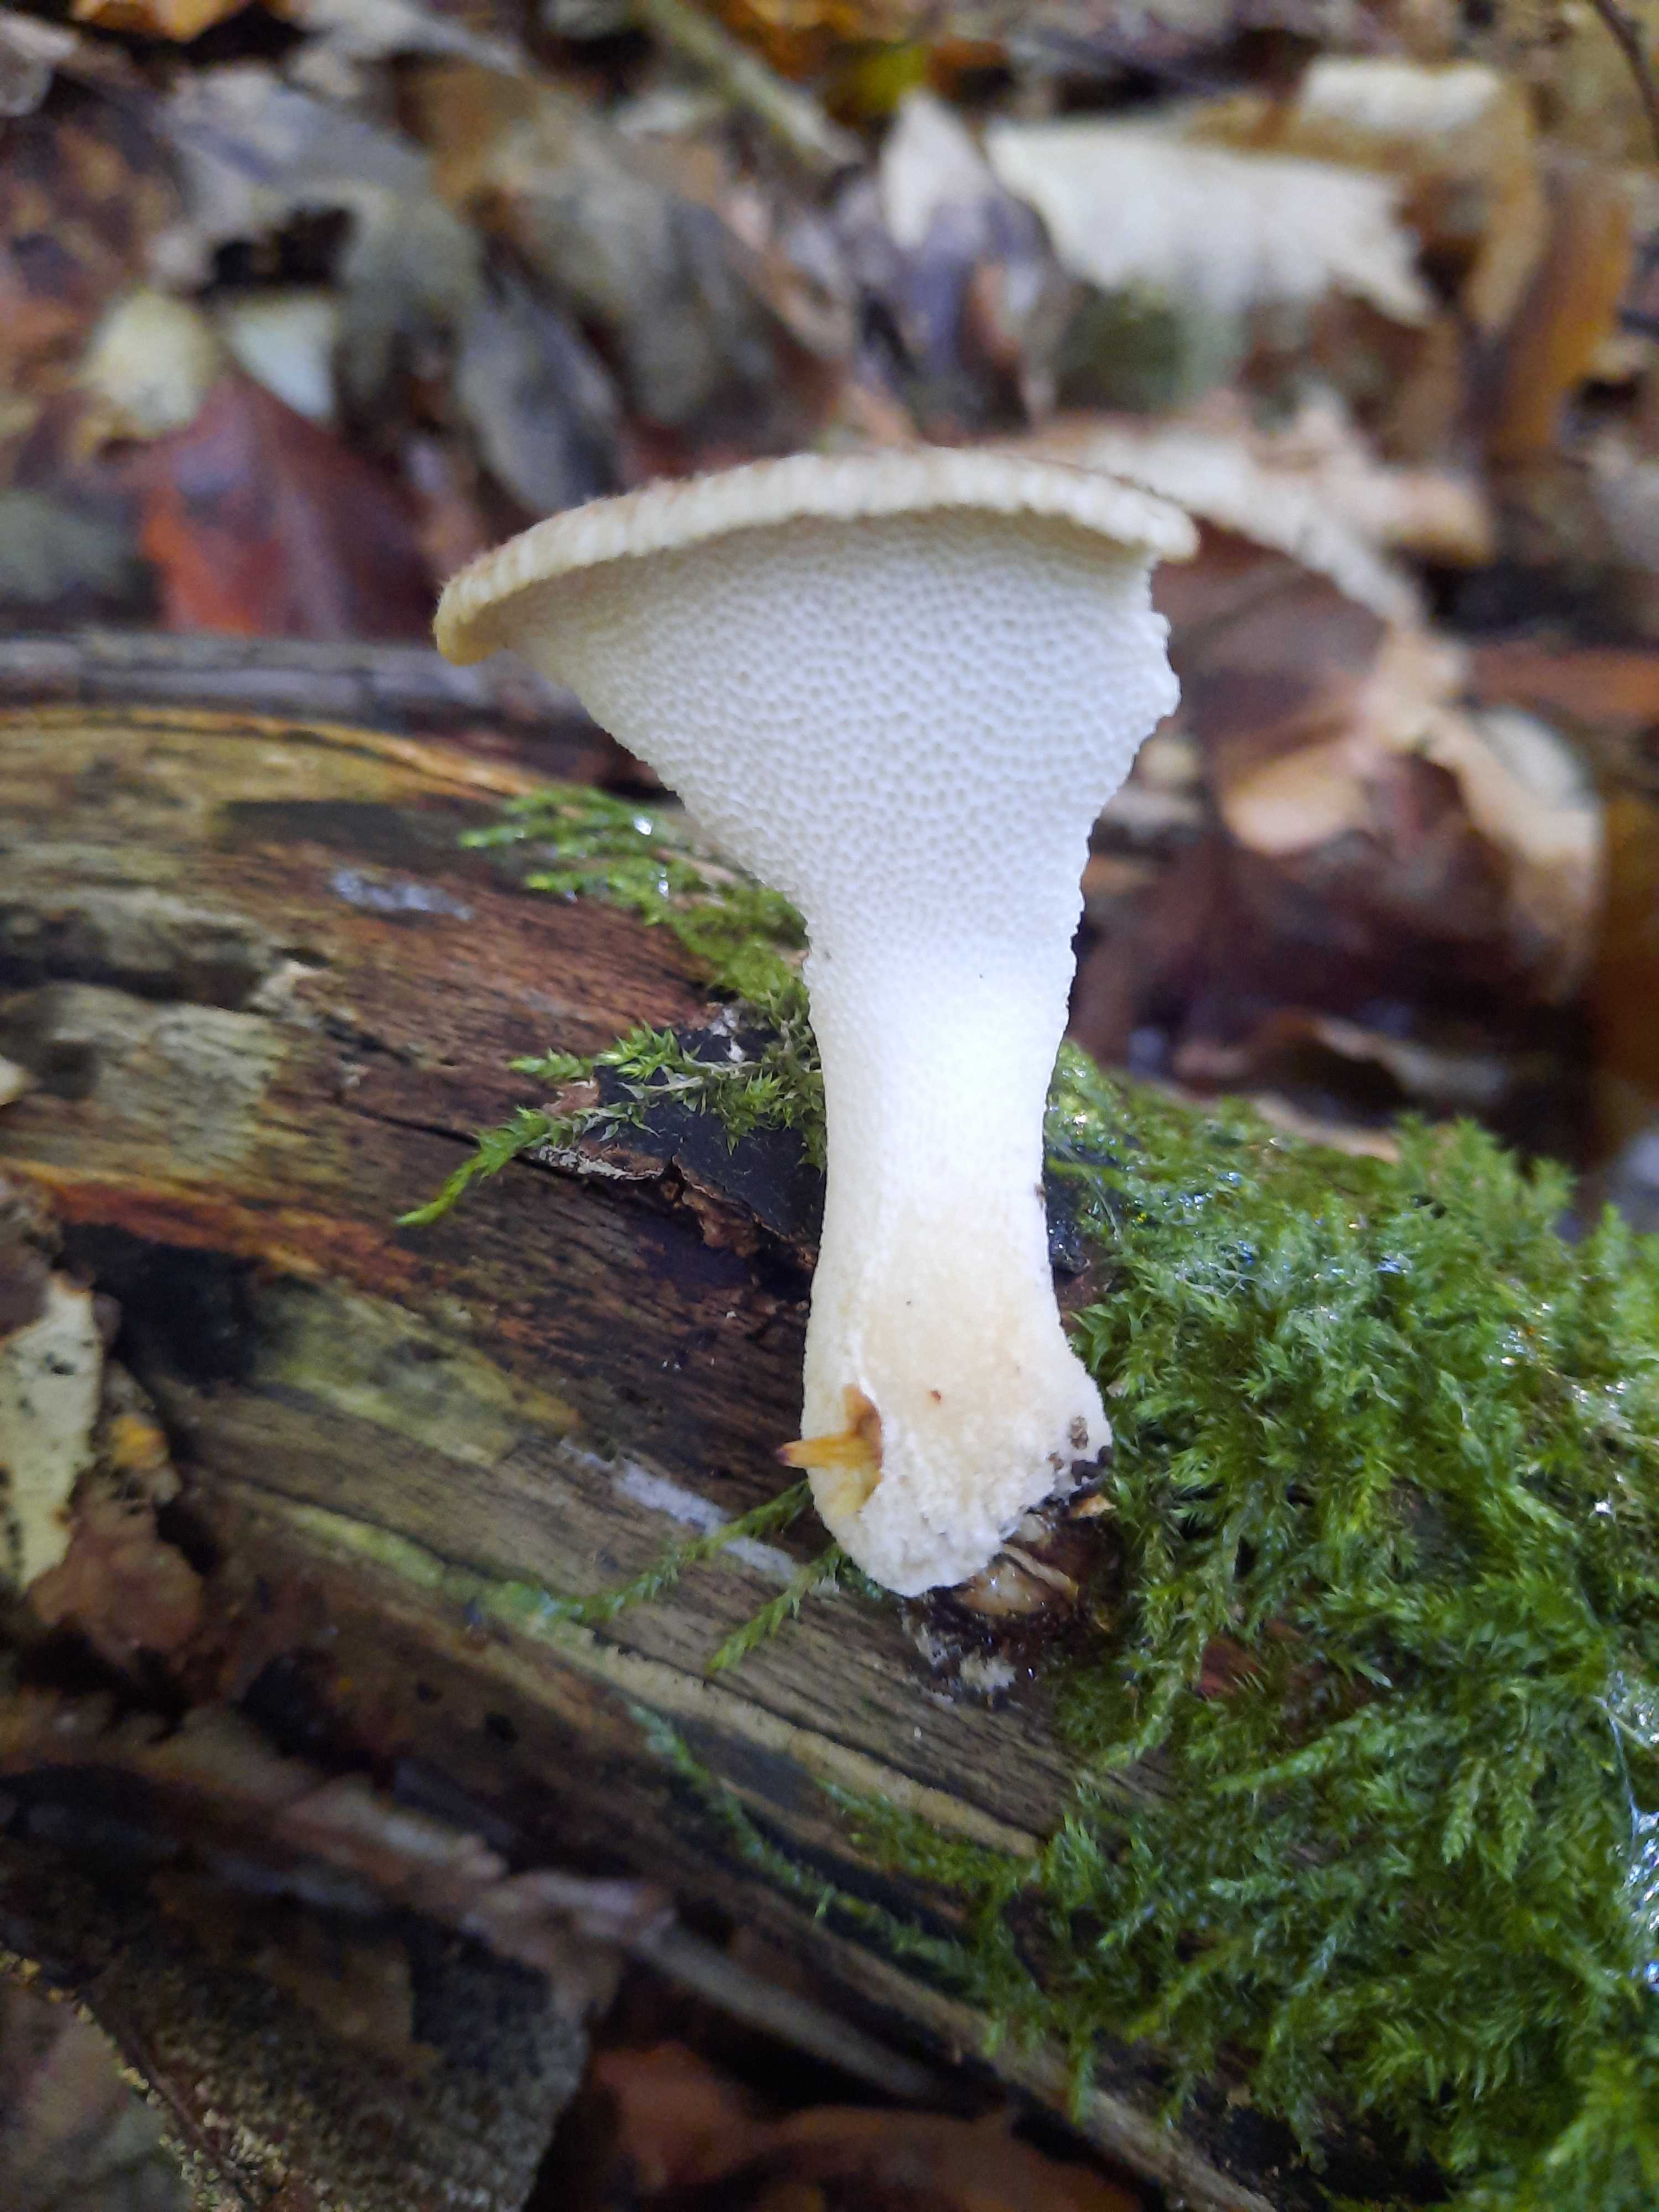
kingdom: Fungi
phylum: Basidiomycota
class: Agaricomycetes
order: Polyporales
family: Polyporaceae
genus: Polyporus
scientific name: Polyporus
